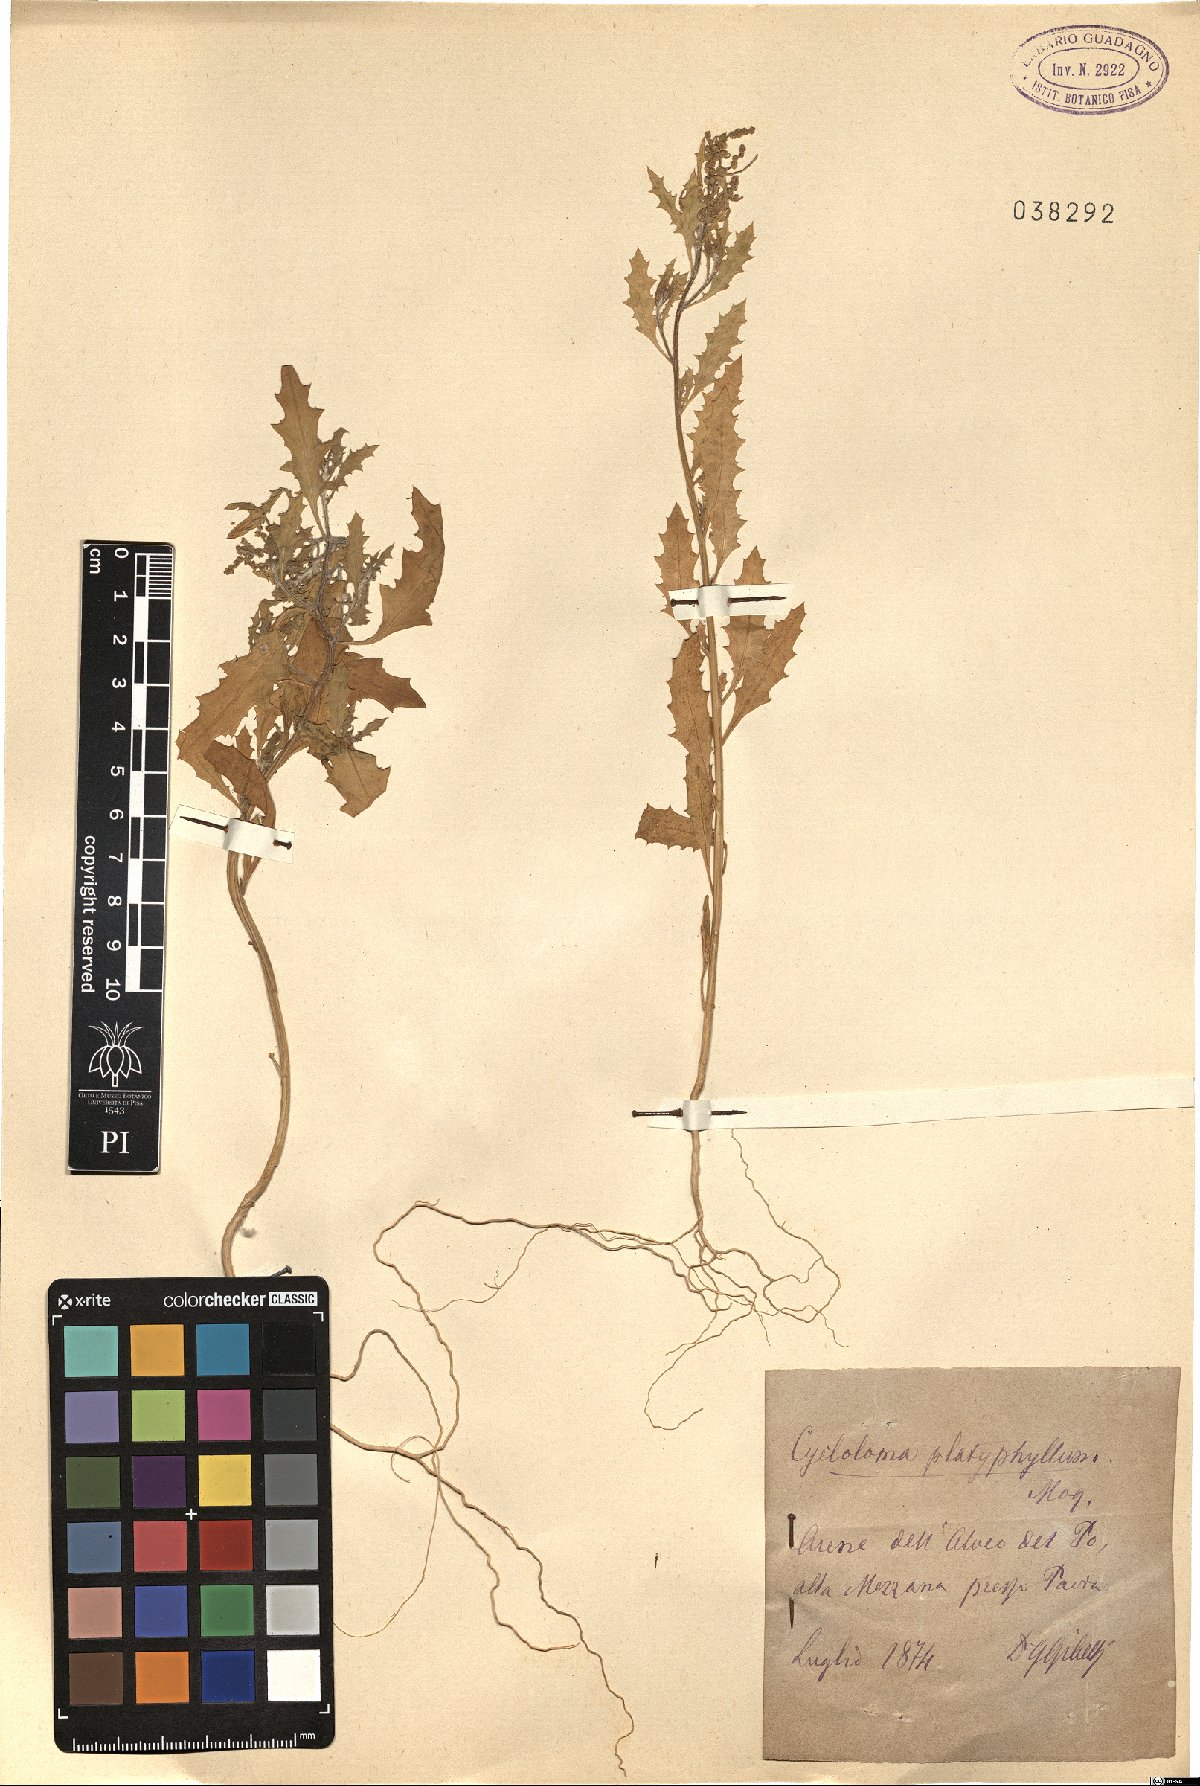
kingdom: Plantae
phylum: Tracheophyta
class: Magnoliopsida
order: Caryophyllales
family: Amaranthaceae
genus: Dysphania
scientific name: Dysphania atriplicifolia
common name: Plains tumbleweed
